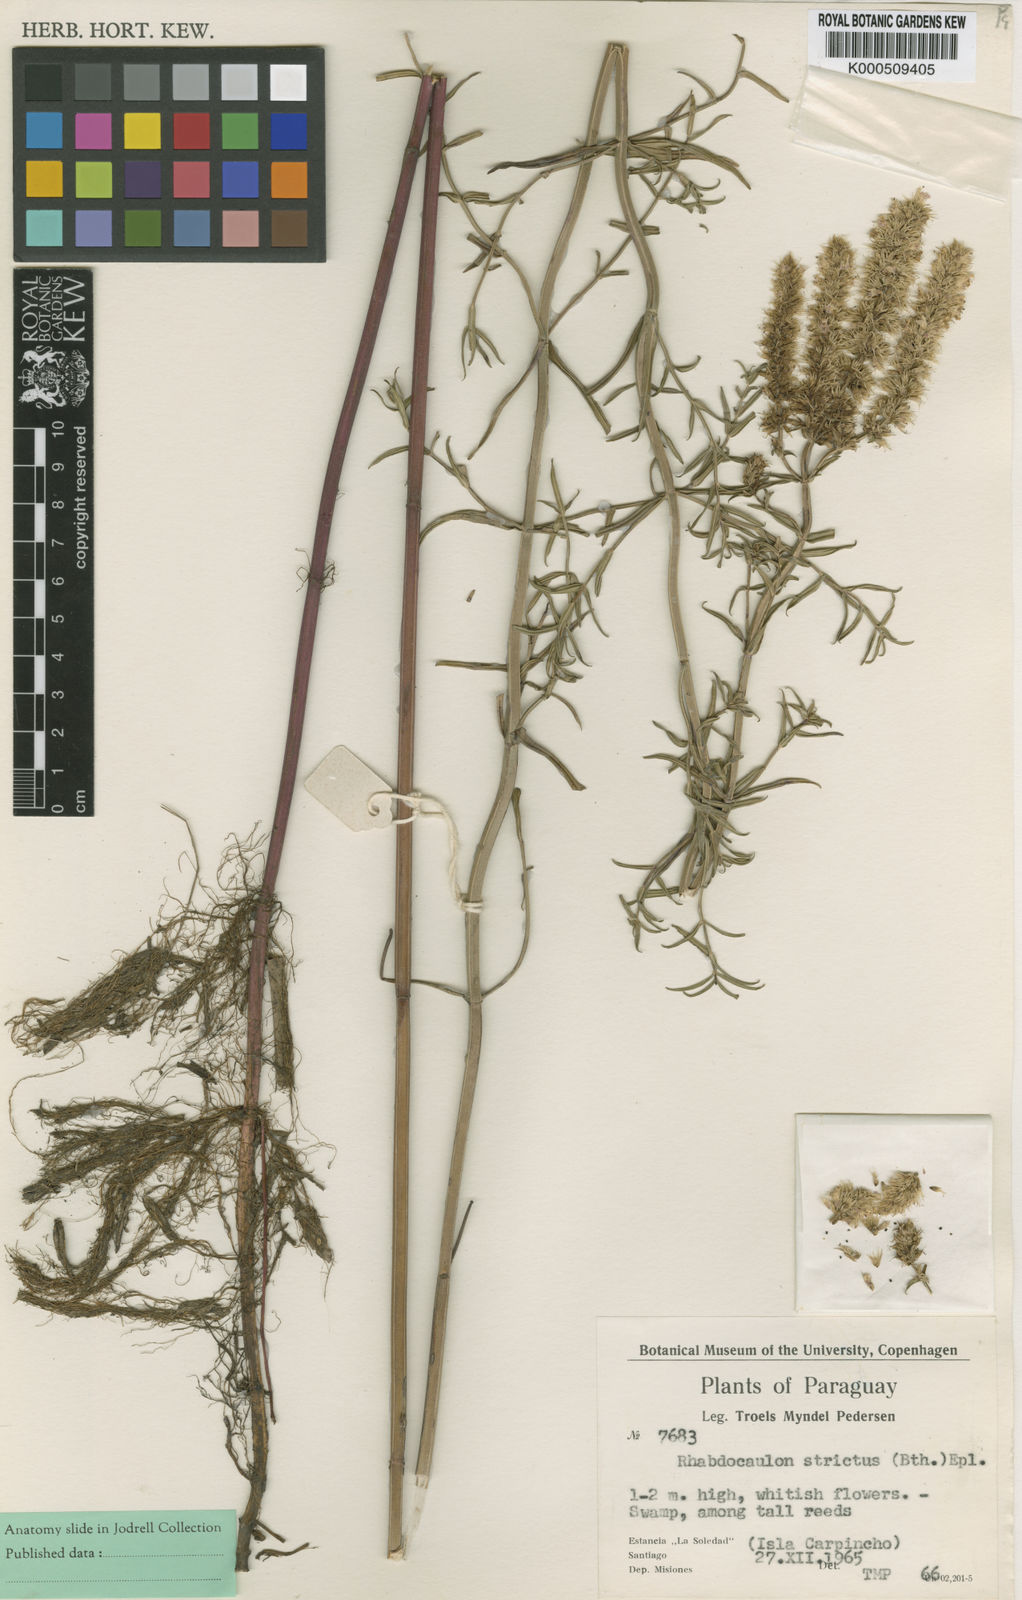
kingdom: Plantae
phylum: Tracheophyta
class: Magnoliopsida
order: Lamiales
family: Lamiaceae
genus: Rhabdocaulon
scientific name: Rhabdocaulon strictum
